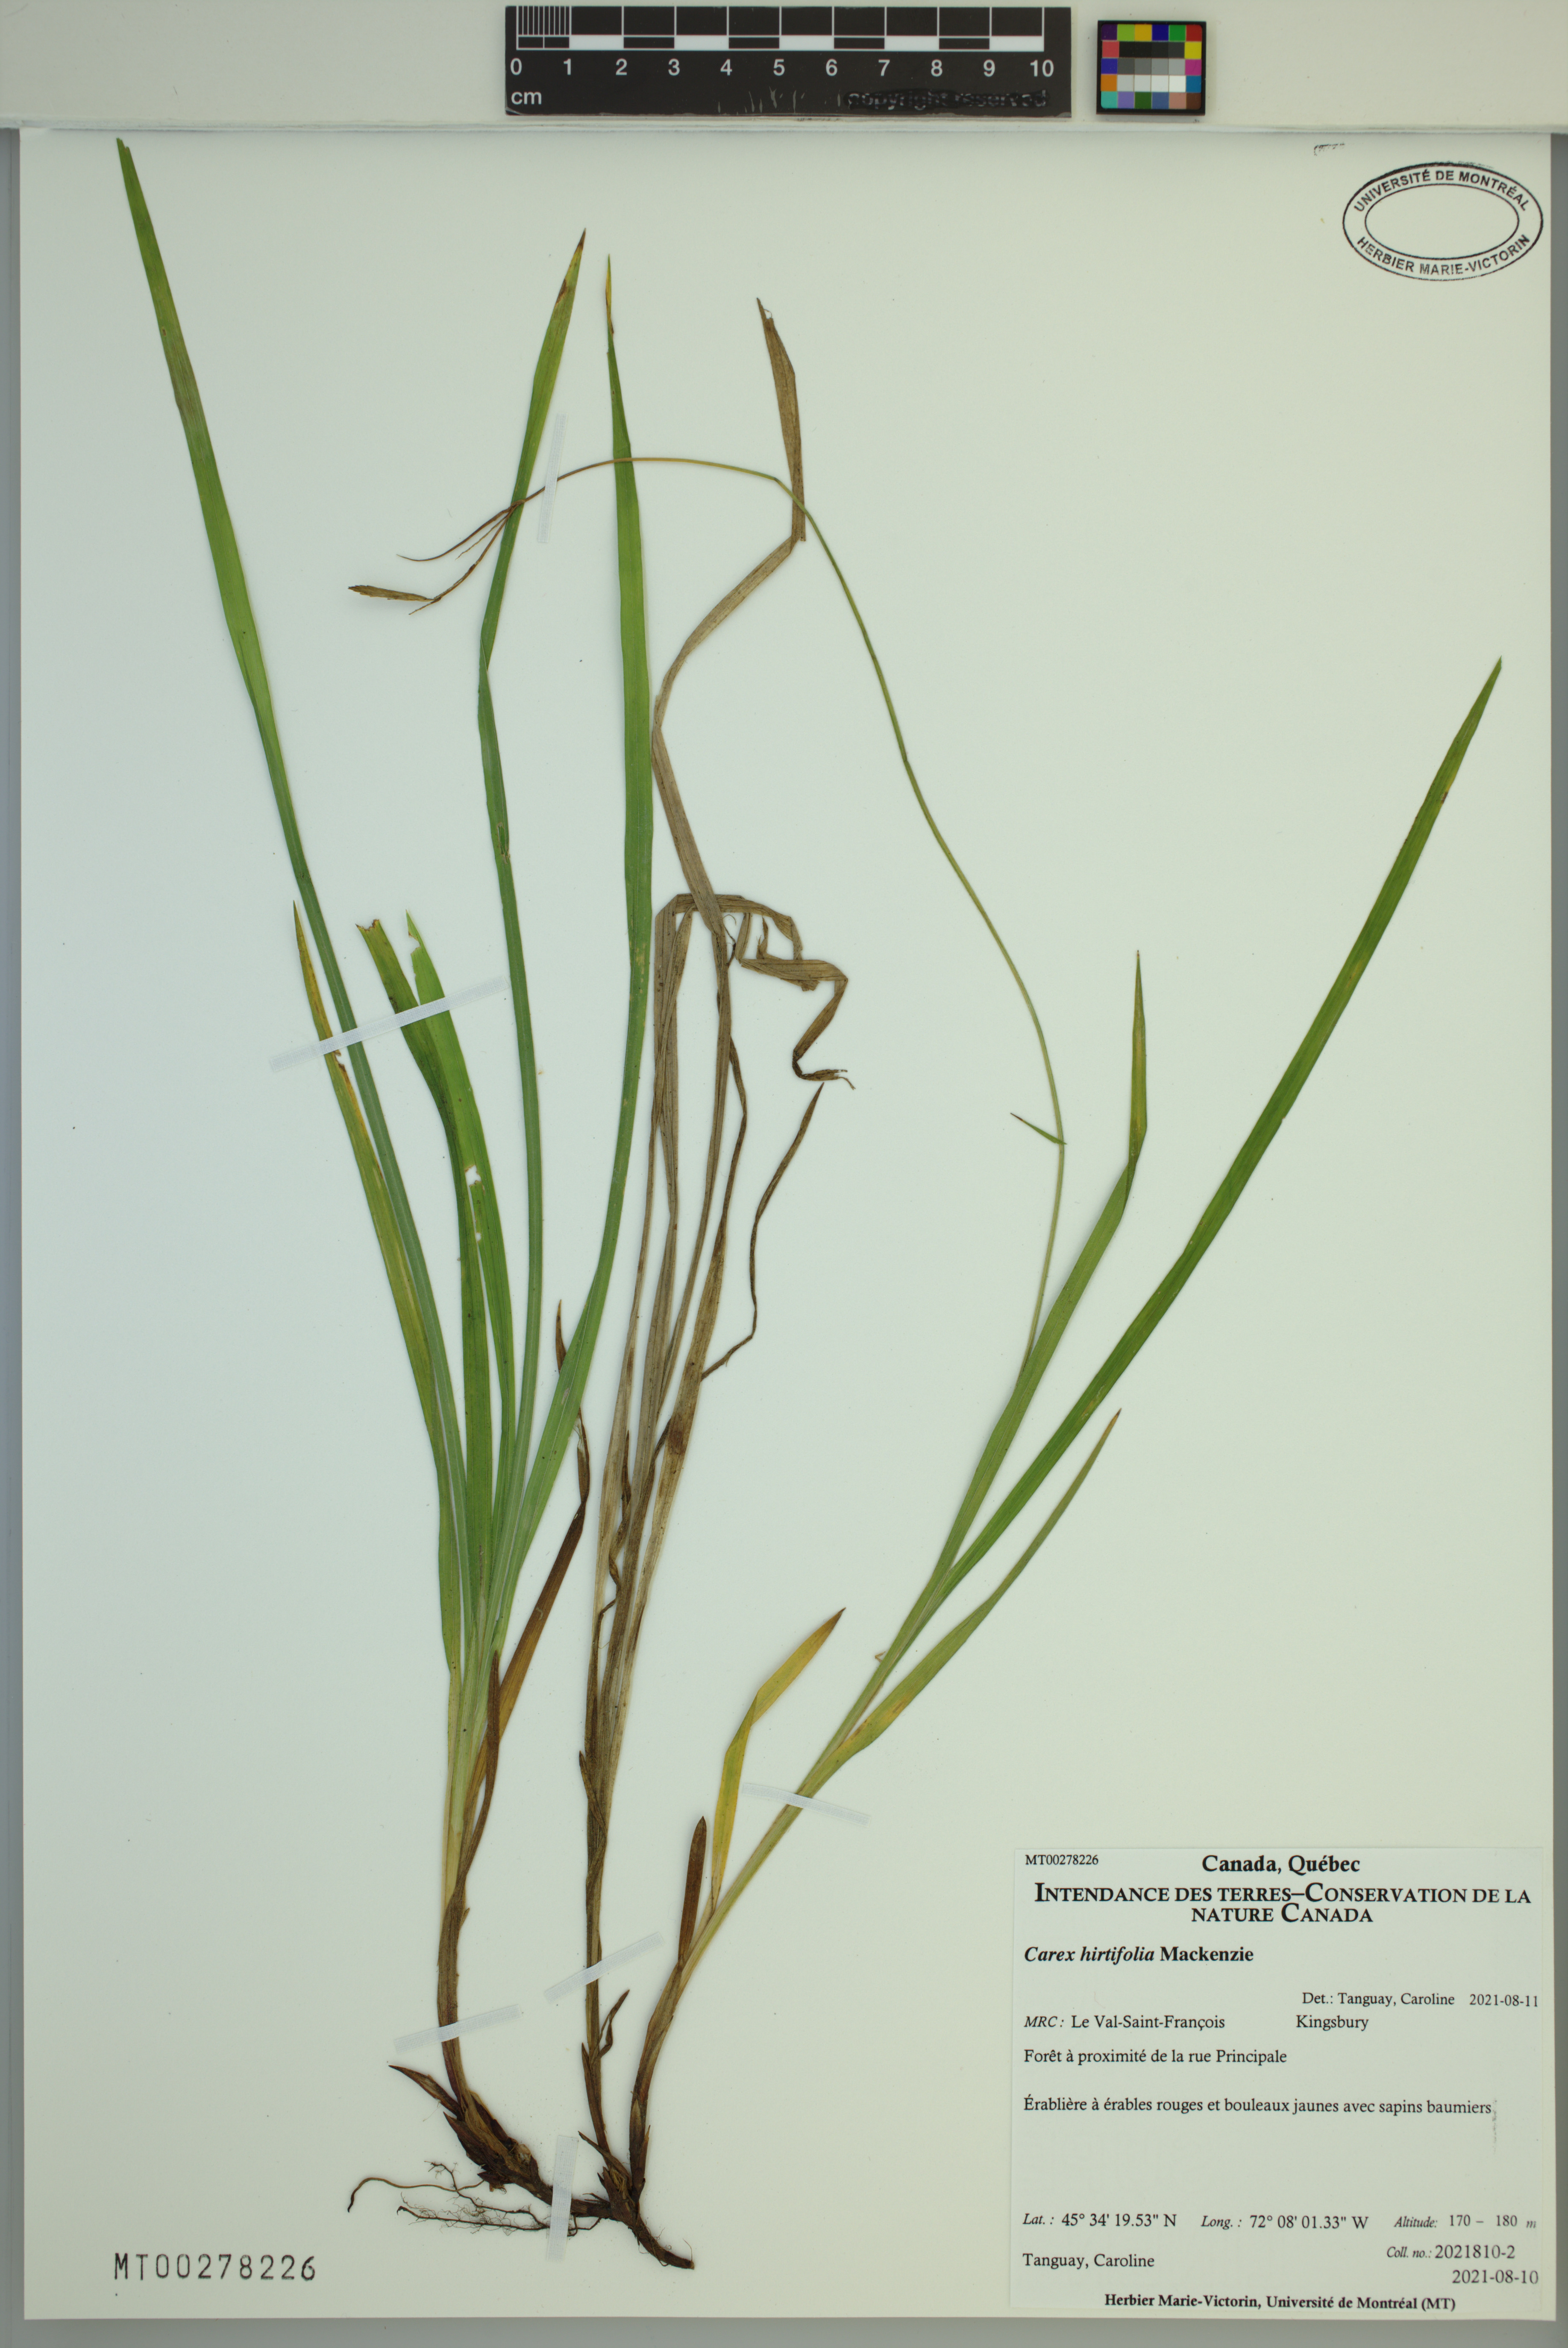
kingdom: Plantae
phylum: Tracheophyta
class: Liliopsida
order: Poales
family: Cyperaceae
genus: Carex
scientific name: Carex hirtifolia
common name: Hairy sedge
